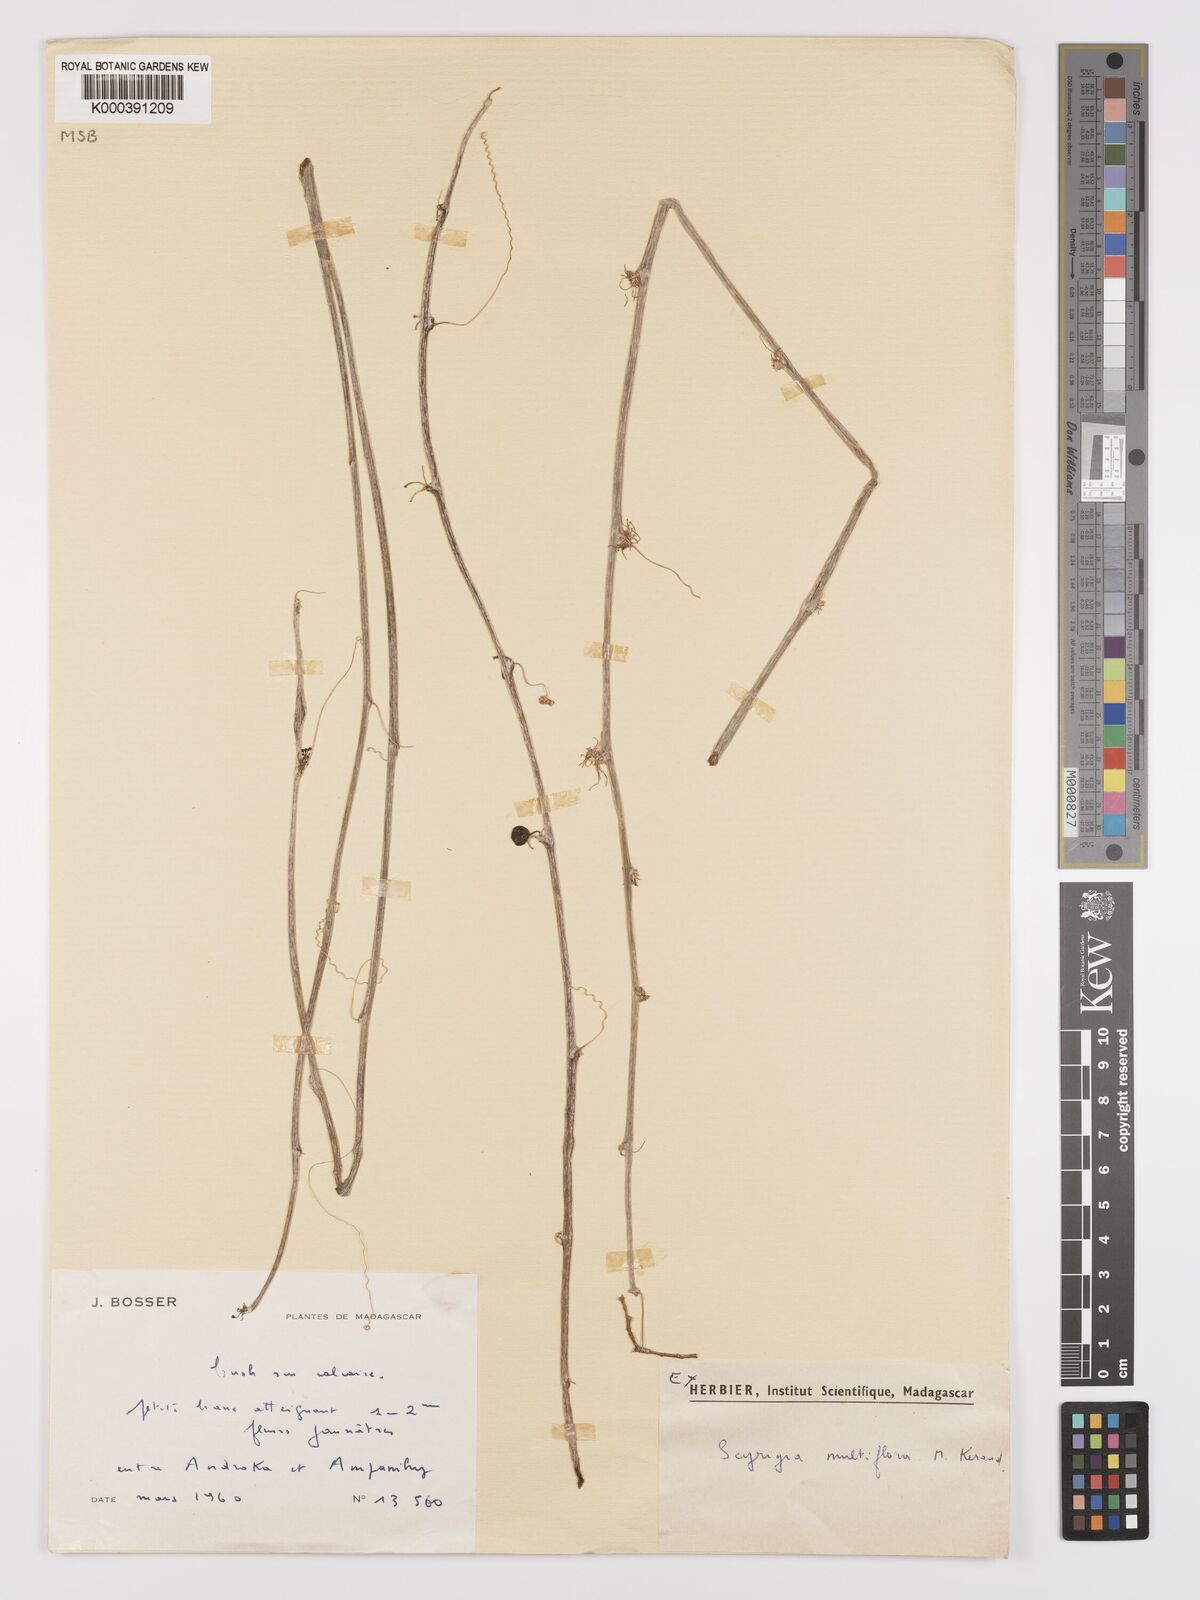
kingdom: Plantae
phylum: Tracheophyta
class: Magnoliopsida
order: Cucurbitales
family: Cucurbitaceae
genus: Seyrigia
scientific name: Seyrigia multiflora
